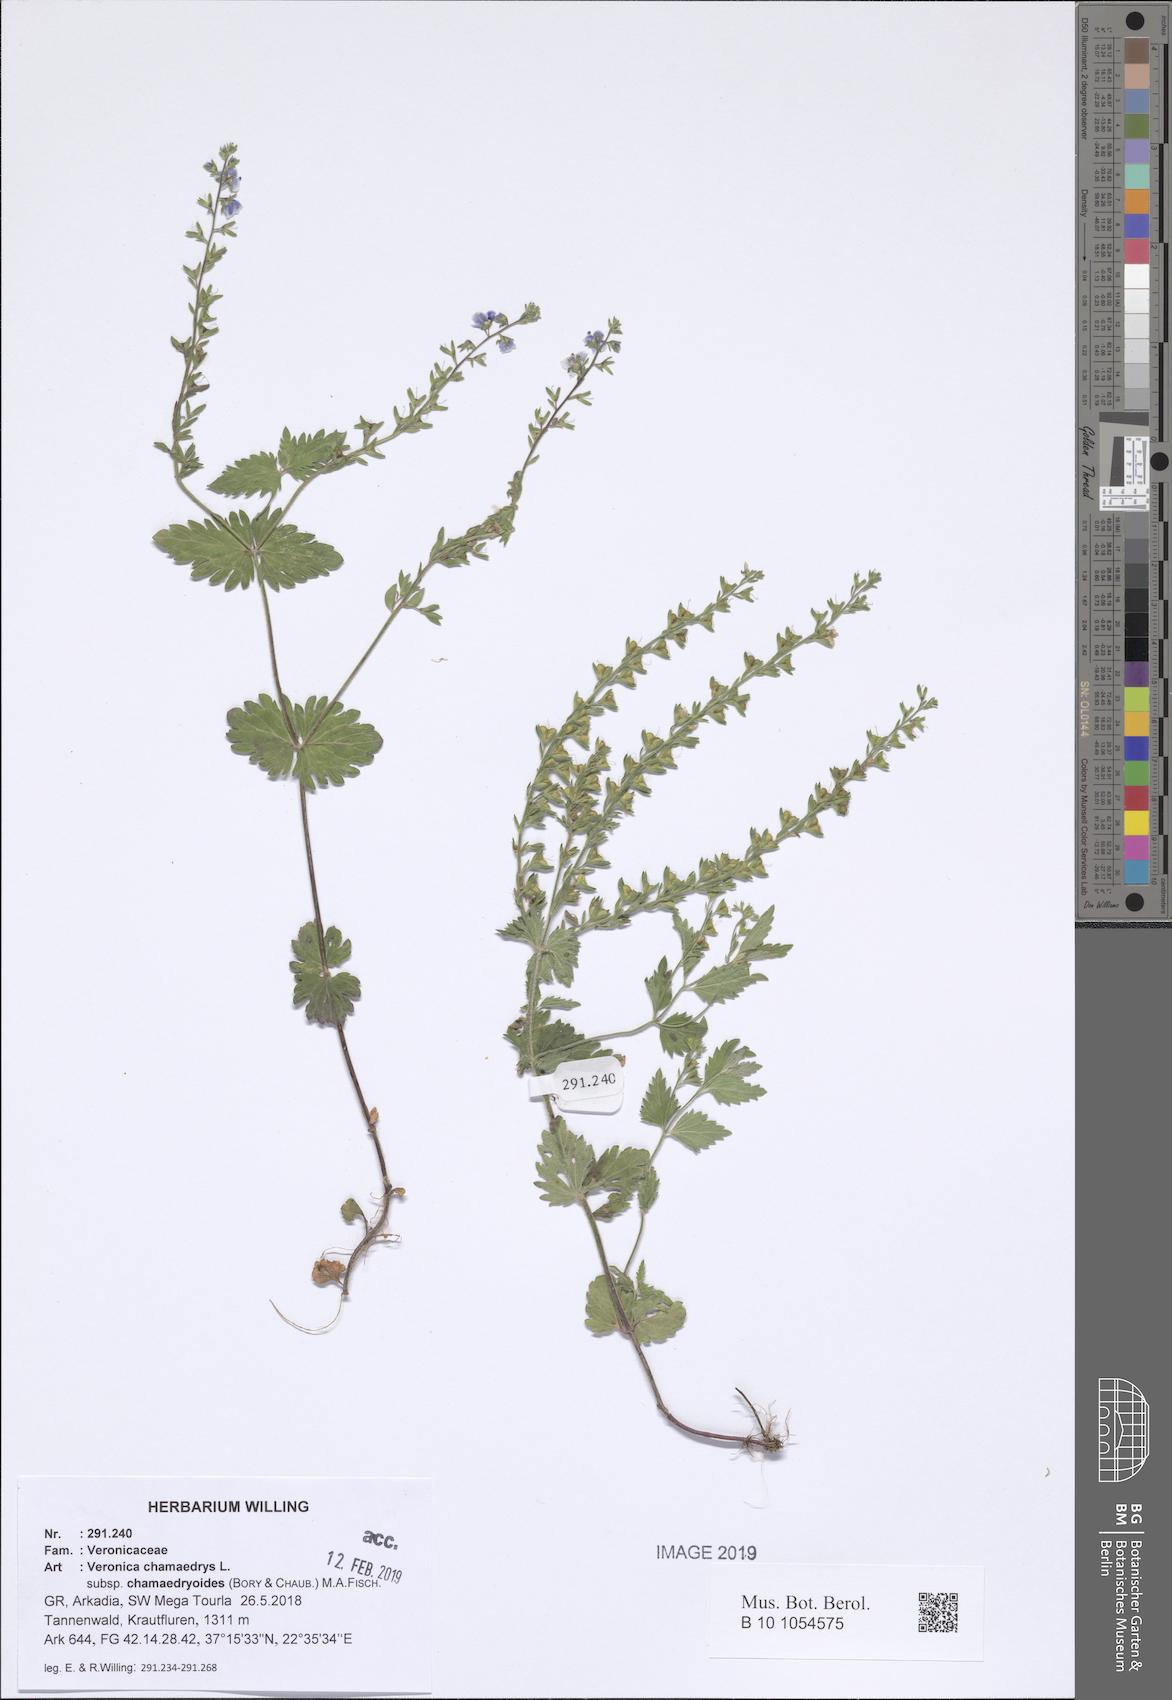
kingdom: Plantae
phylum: Tracheophyta
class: Magnoliopsida
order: Lamiales
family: Plantaginaceae
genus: Veronica
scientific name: Veronica chamaedrys
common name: Germander speedwell
